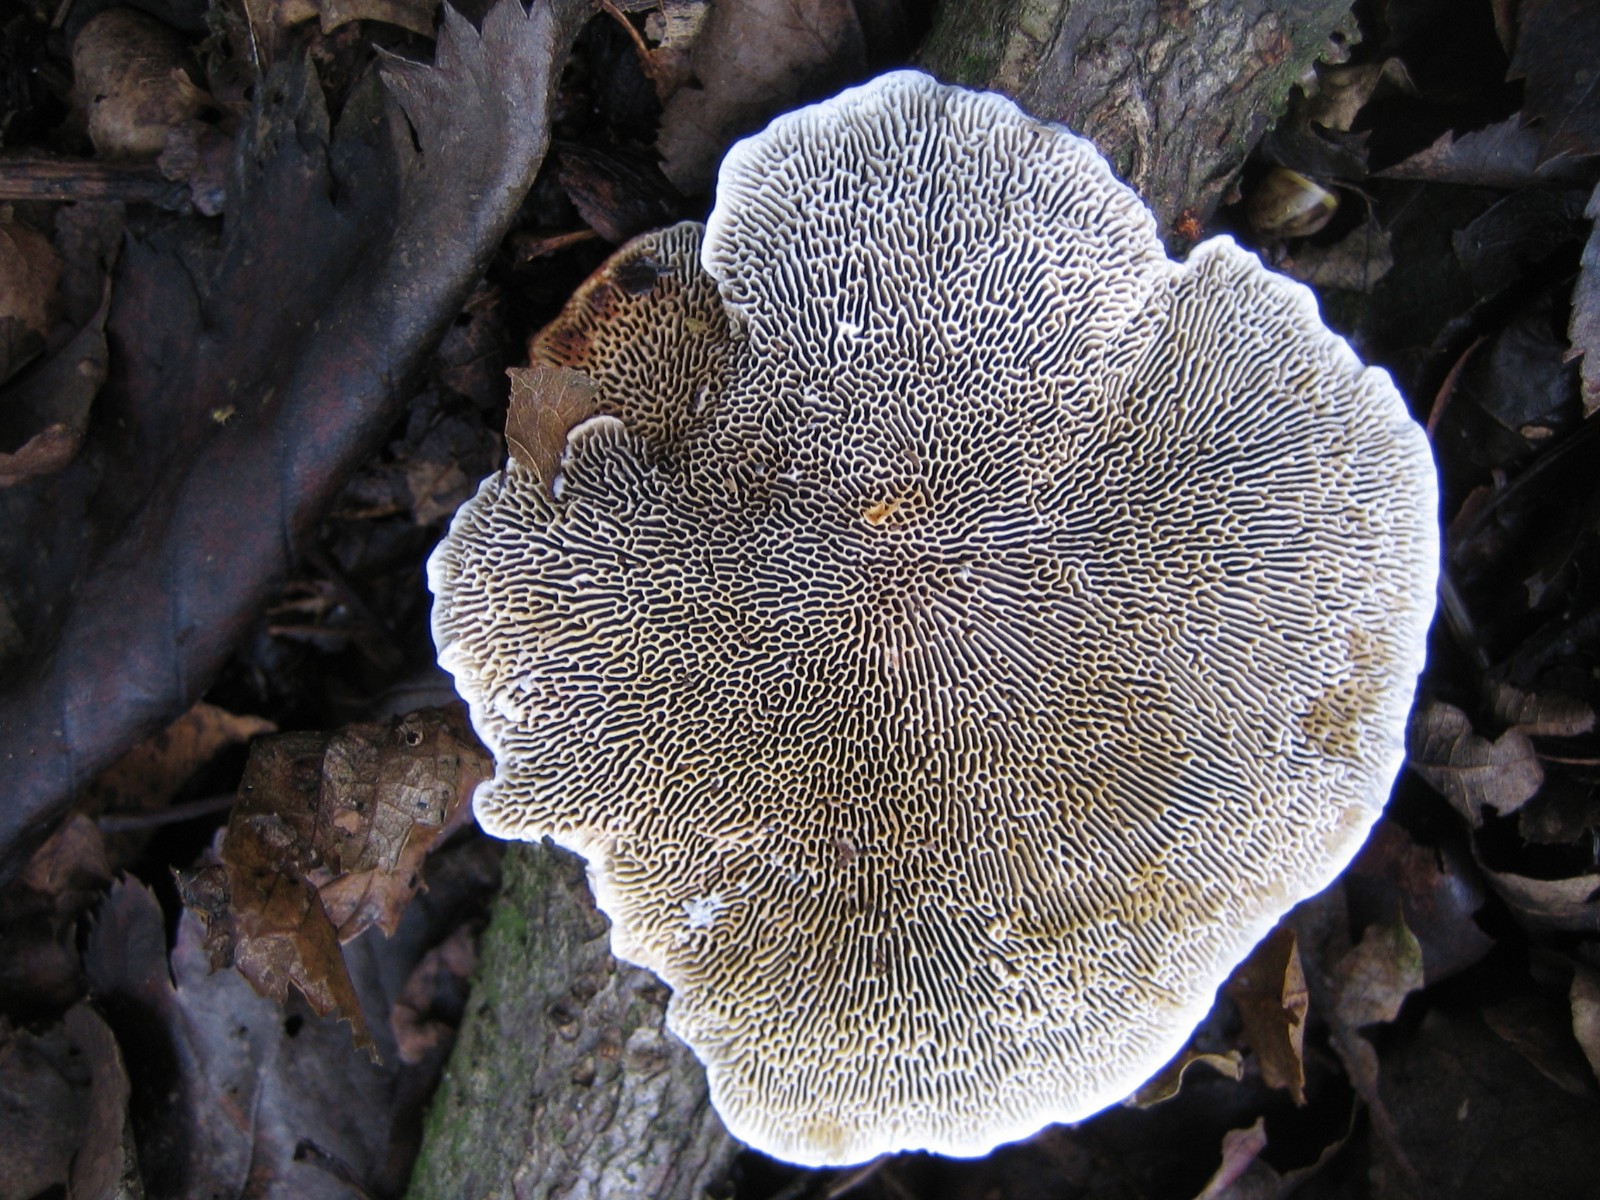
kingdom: Fungi
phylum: Basidiomycota
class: Agaricomycetes
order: Polyporales
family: Polyporaceae
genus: Daedaleopsis
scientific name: Daedaleopsis confragosa
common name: rødmende læderporesvamp
